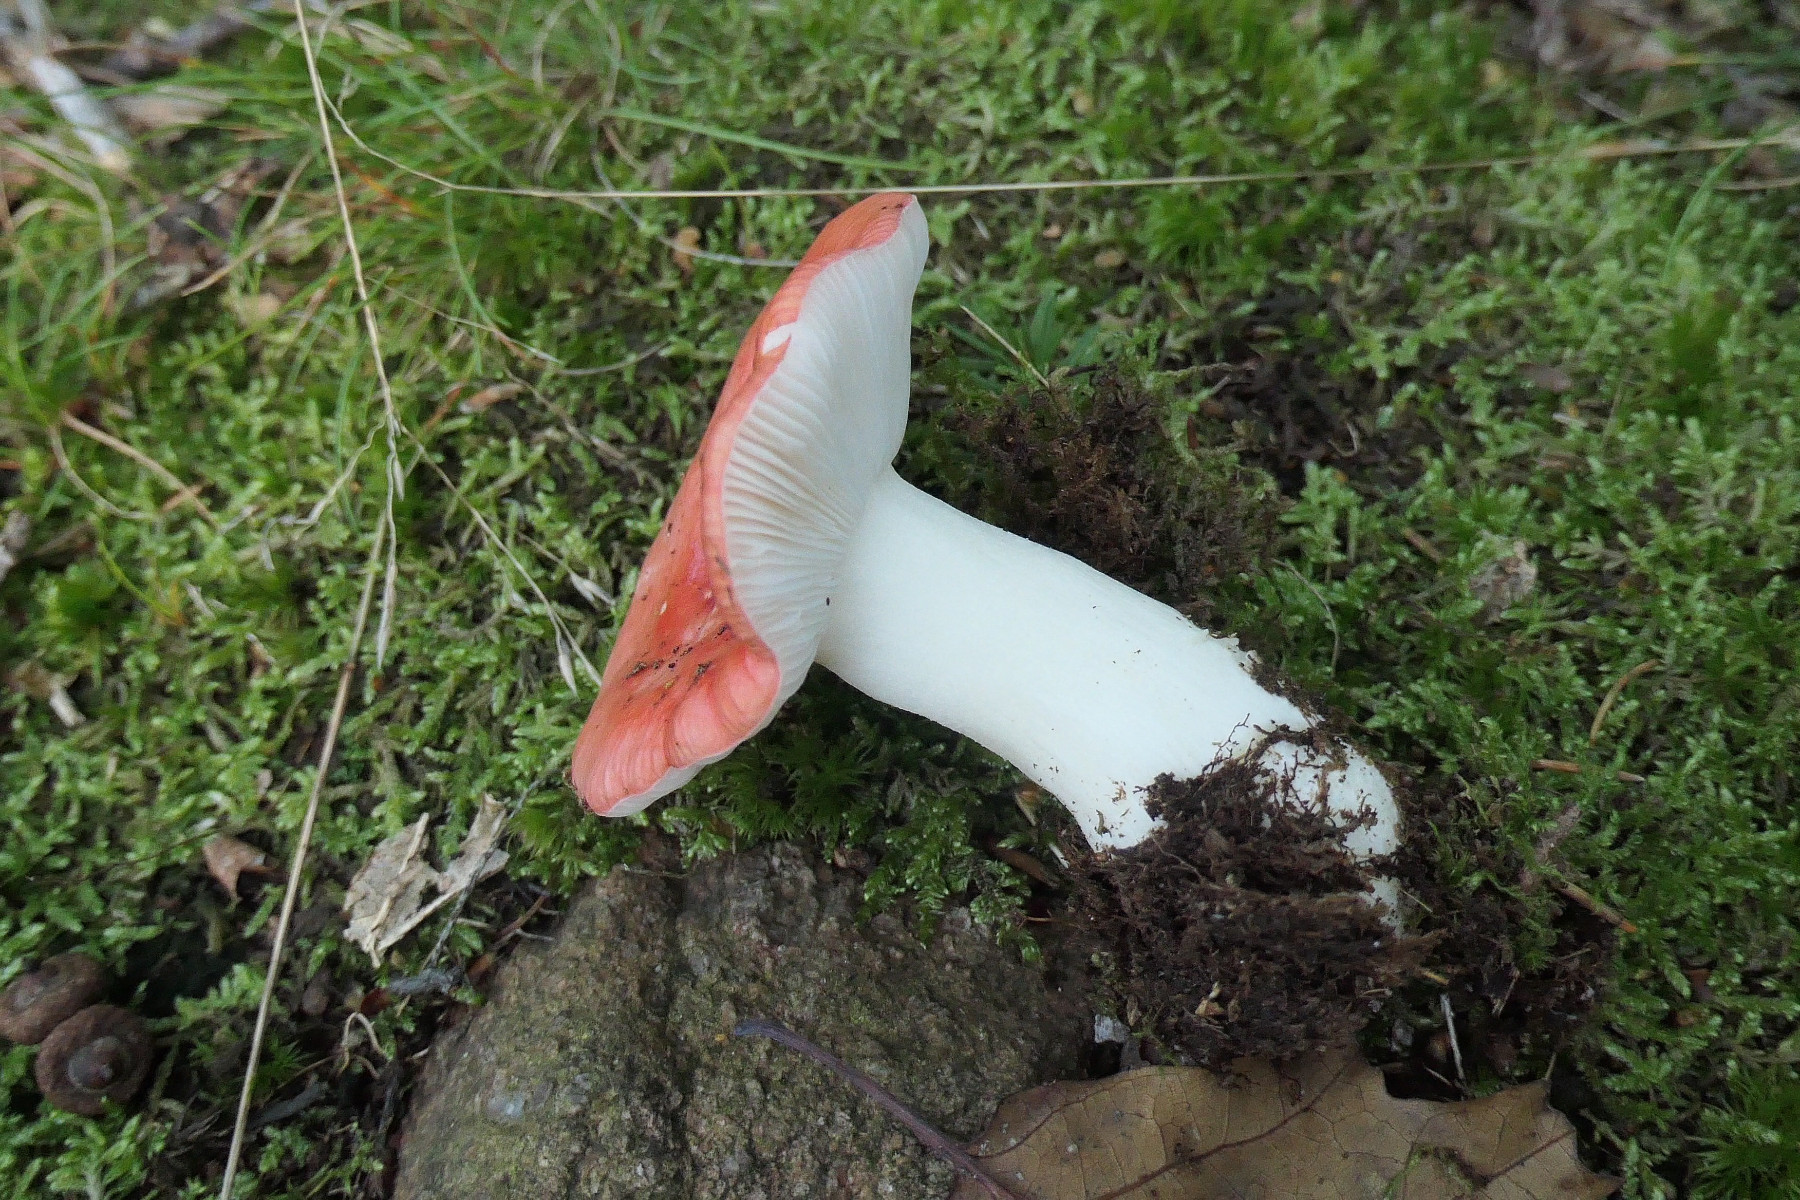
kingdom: Fungi
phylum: Basidiomycota
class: Agaricomycetes
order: Russulales
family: Russulaceae
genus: Russula
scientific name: Russula
